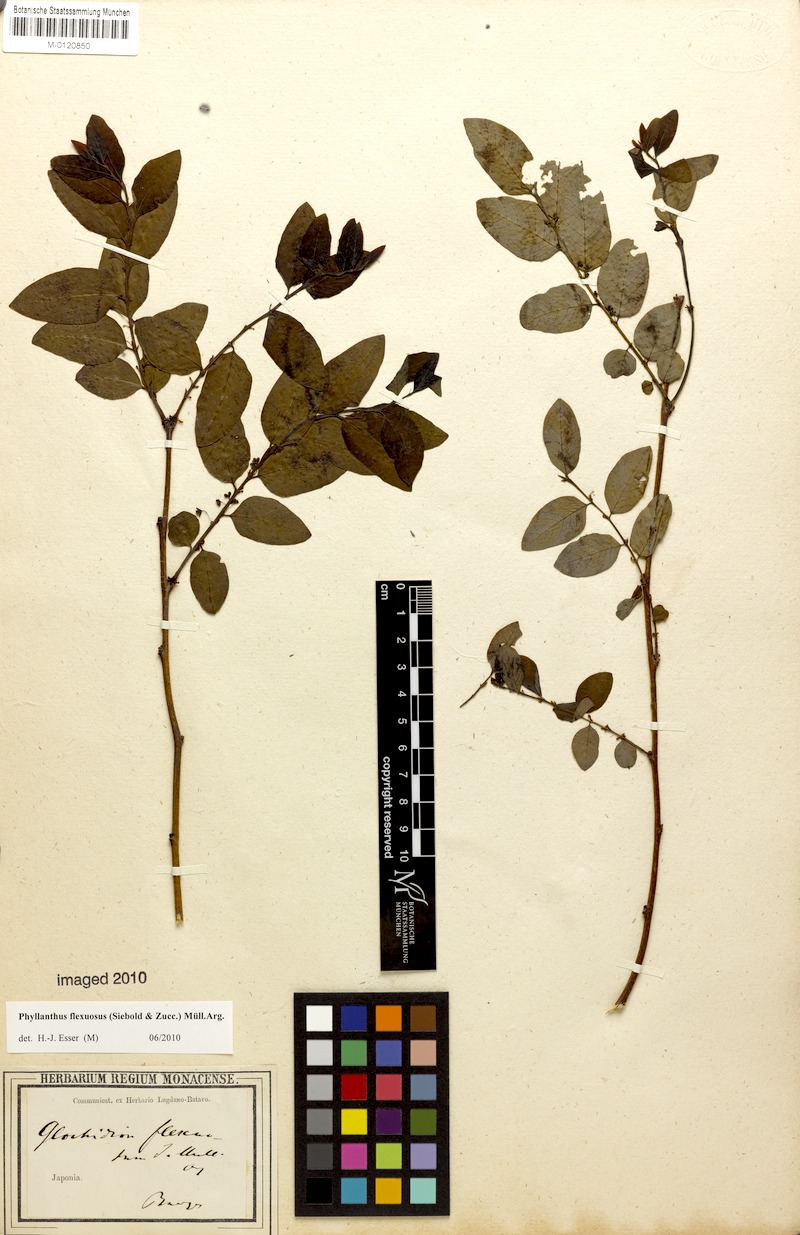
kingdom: Plantae
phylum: Tracheophyta
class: Magnoliopsida
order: Malpighiales
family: Phyllanthaceae
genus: Phyllanthus
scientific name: Phyllanthus flexuosus
